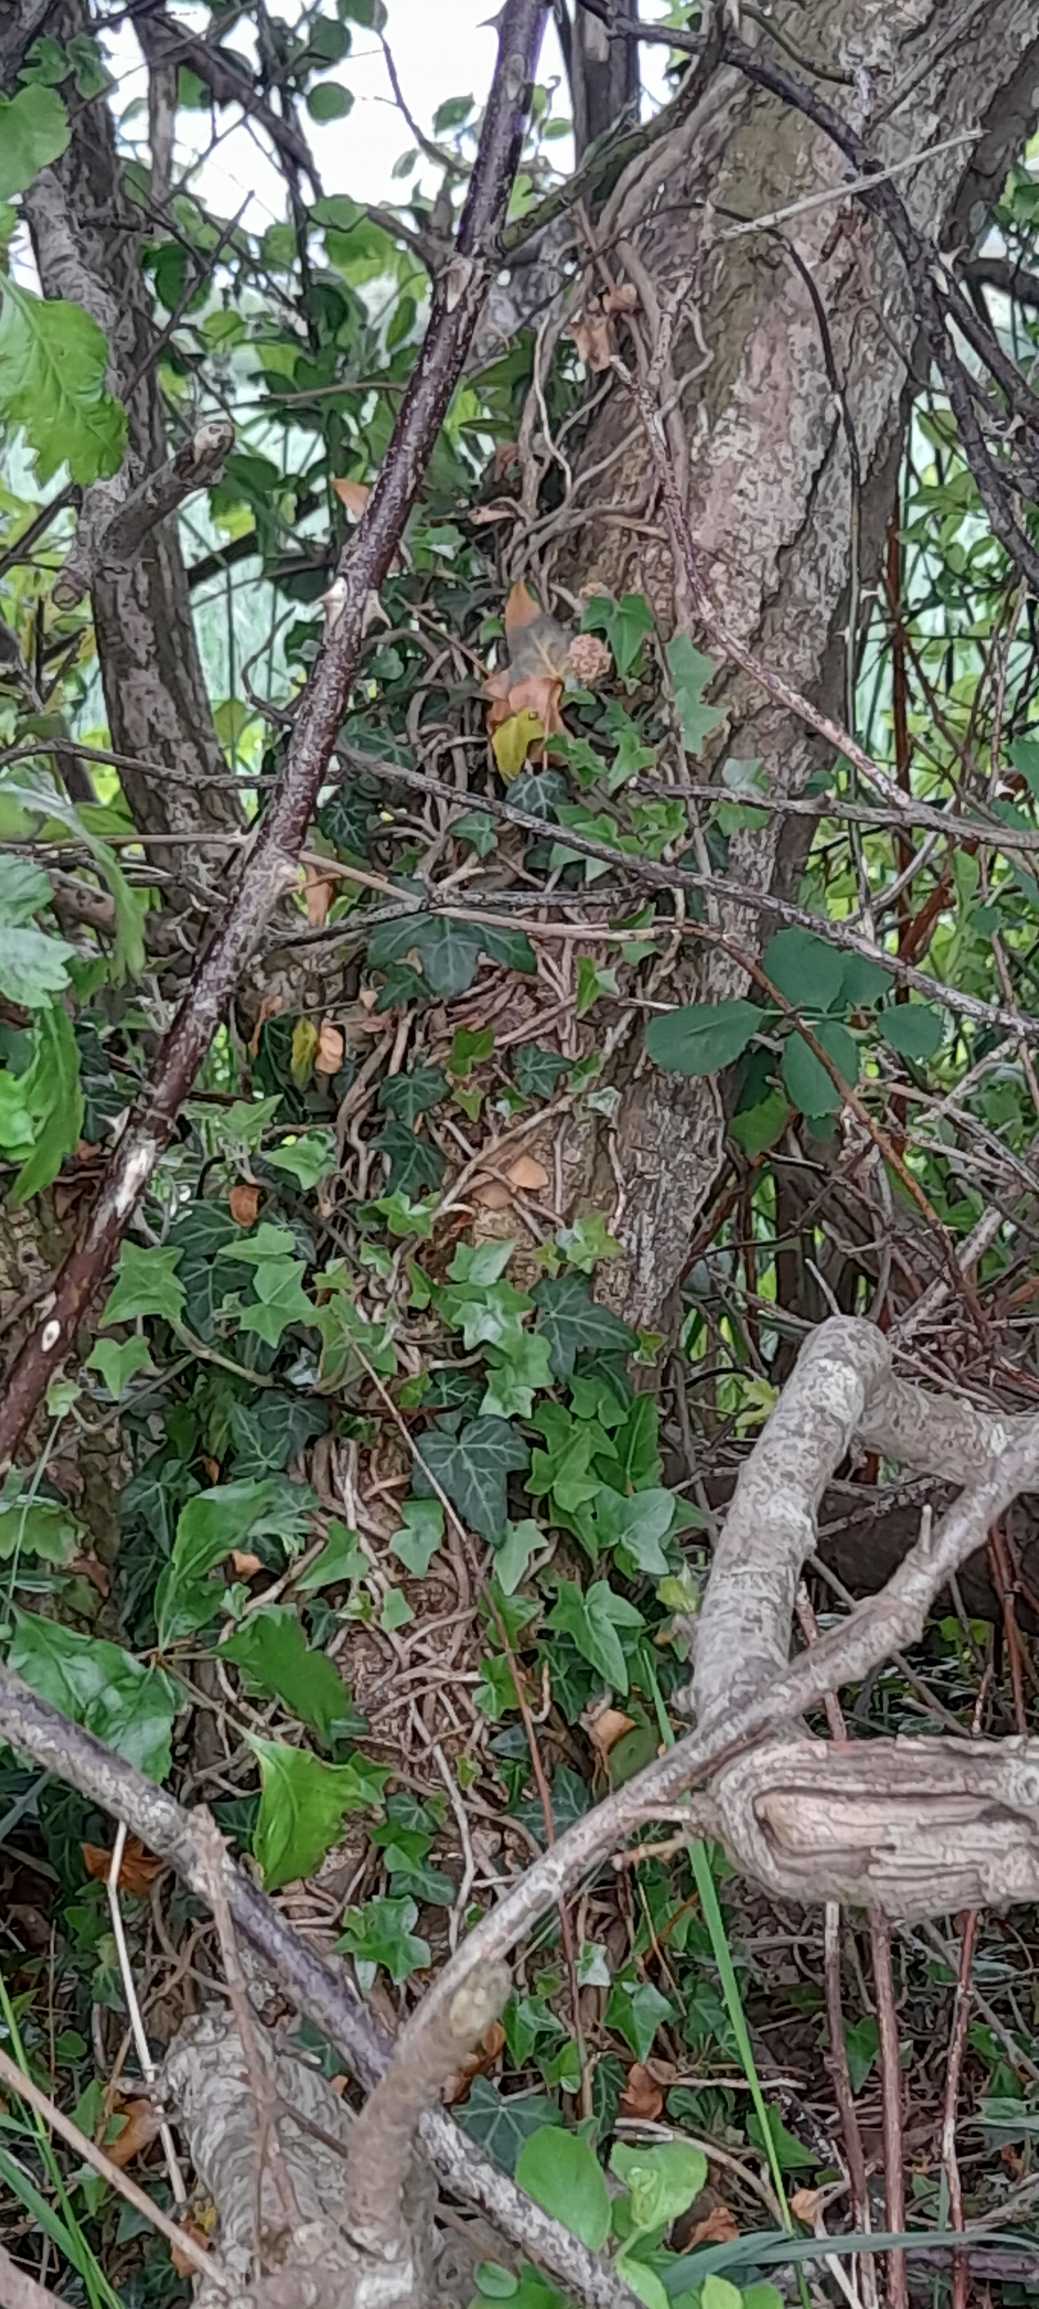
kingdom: Plantae
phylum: Tracheophyta
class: Magnoliopsida
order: Apiales
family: Araliaceae
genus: Hedera
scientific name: Hedera helix
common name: Vedbend
